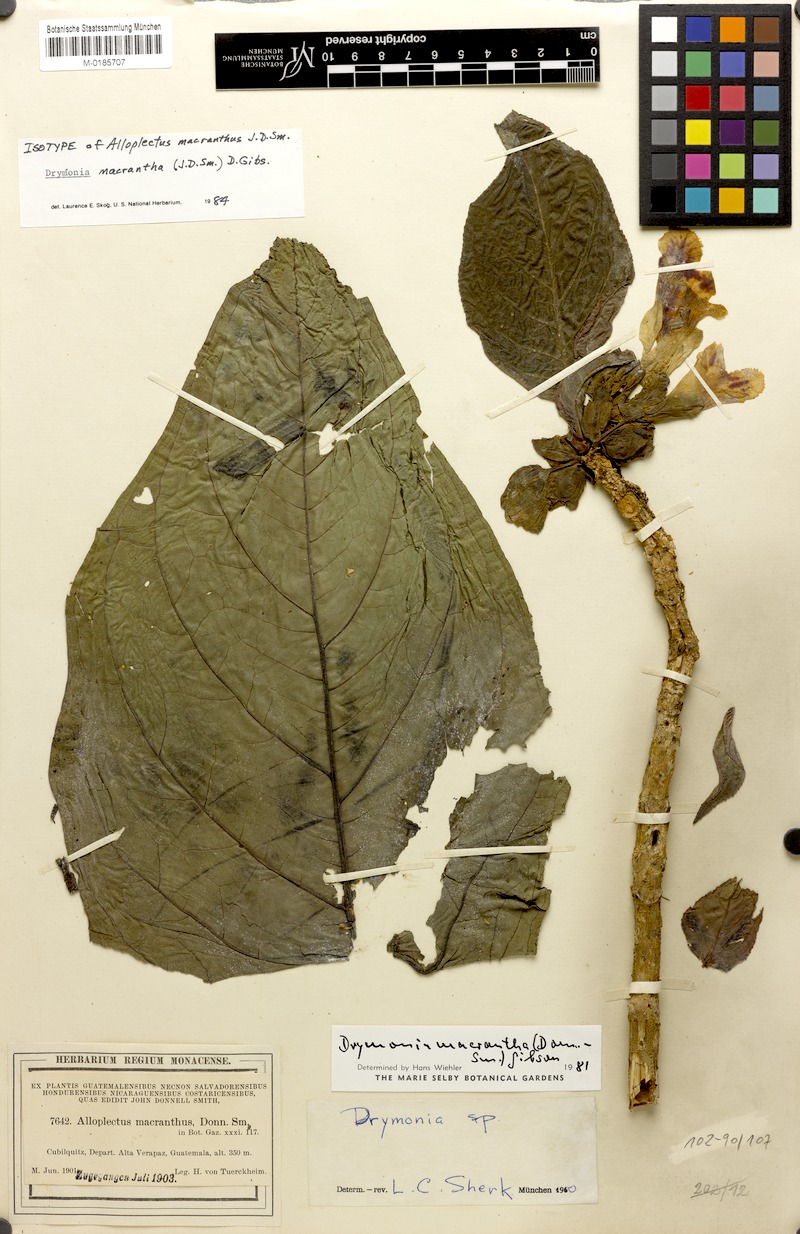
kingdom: Plantae
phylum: Tracheophyta
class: Magnoliopsida
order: Lamiales
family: Gesneriaceae
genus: Drymonia
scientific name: Drymonia macrantha
